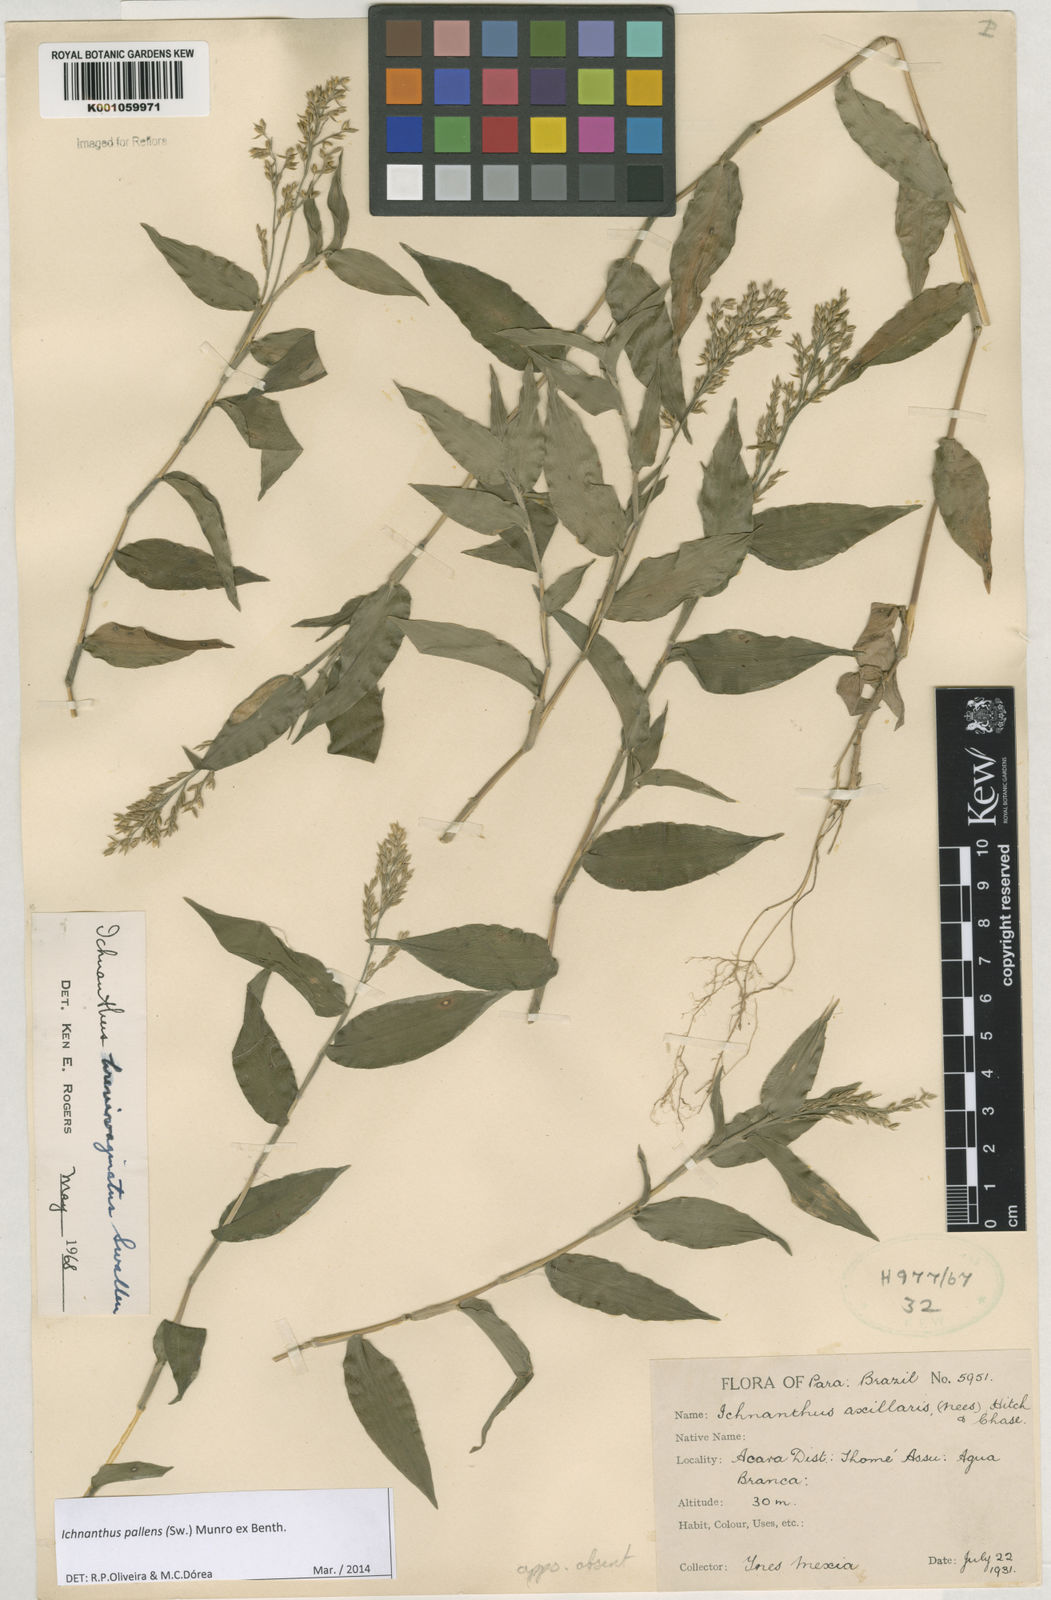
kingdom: Plantae
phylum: Tracheophyta
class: Liliopsida
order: Poales
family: Poaceae
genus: Ichnanthus
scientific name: Ichnanthus pallens
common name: Water grass
